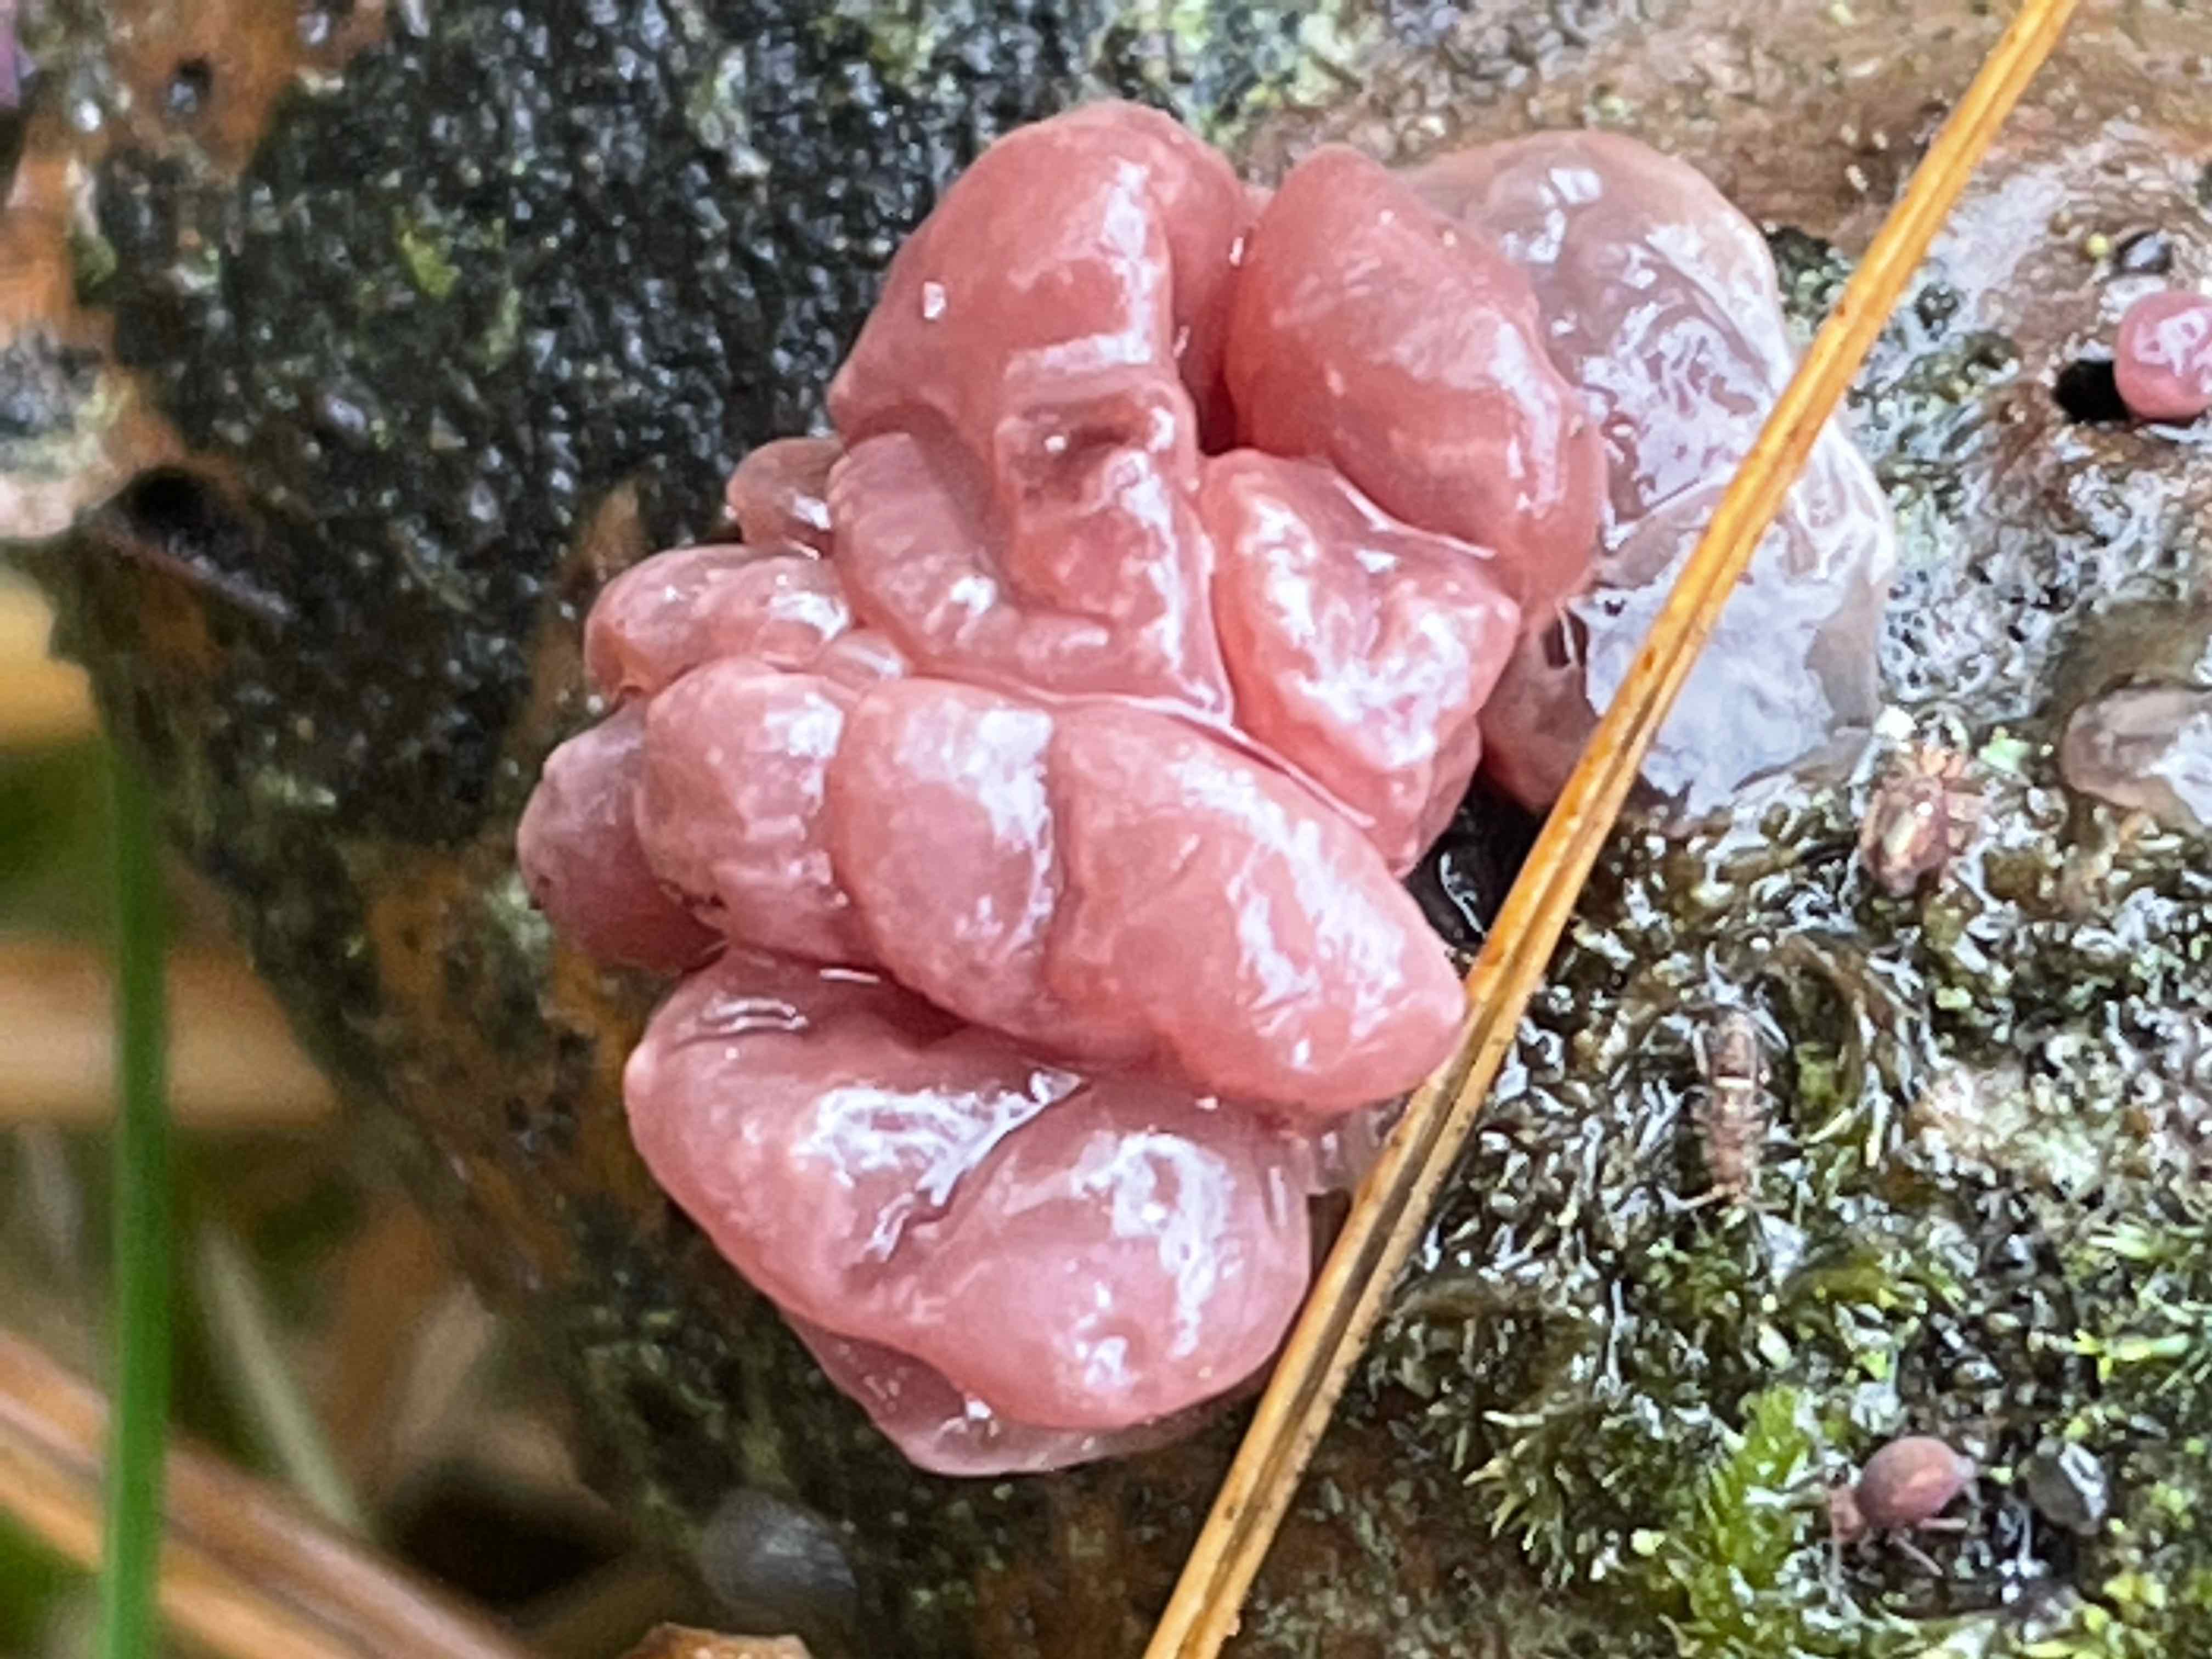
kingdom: Fungi
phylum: Ascomycota
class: Leotiomycetes
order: Helotiales
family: Gelatinodiscaceae
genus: Ascocoryne
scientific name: Ascocoryne sarcoides
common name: rødlilla sejskive
